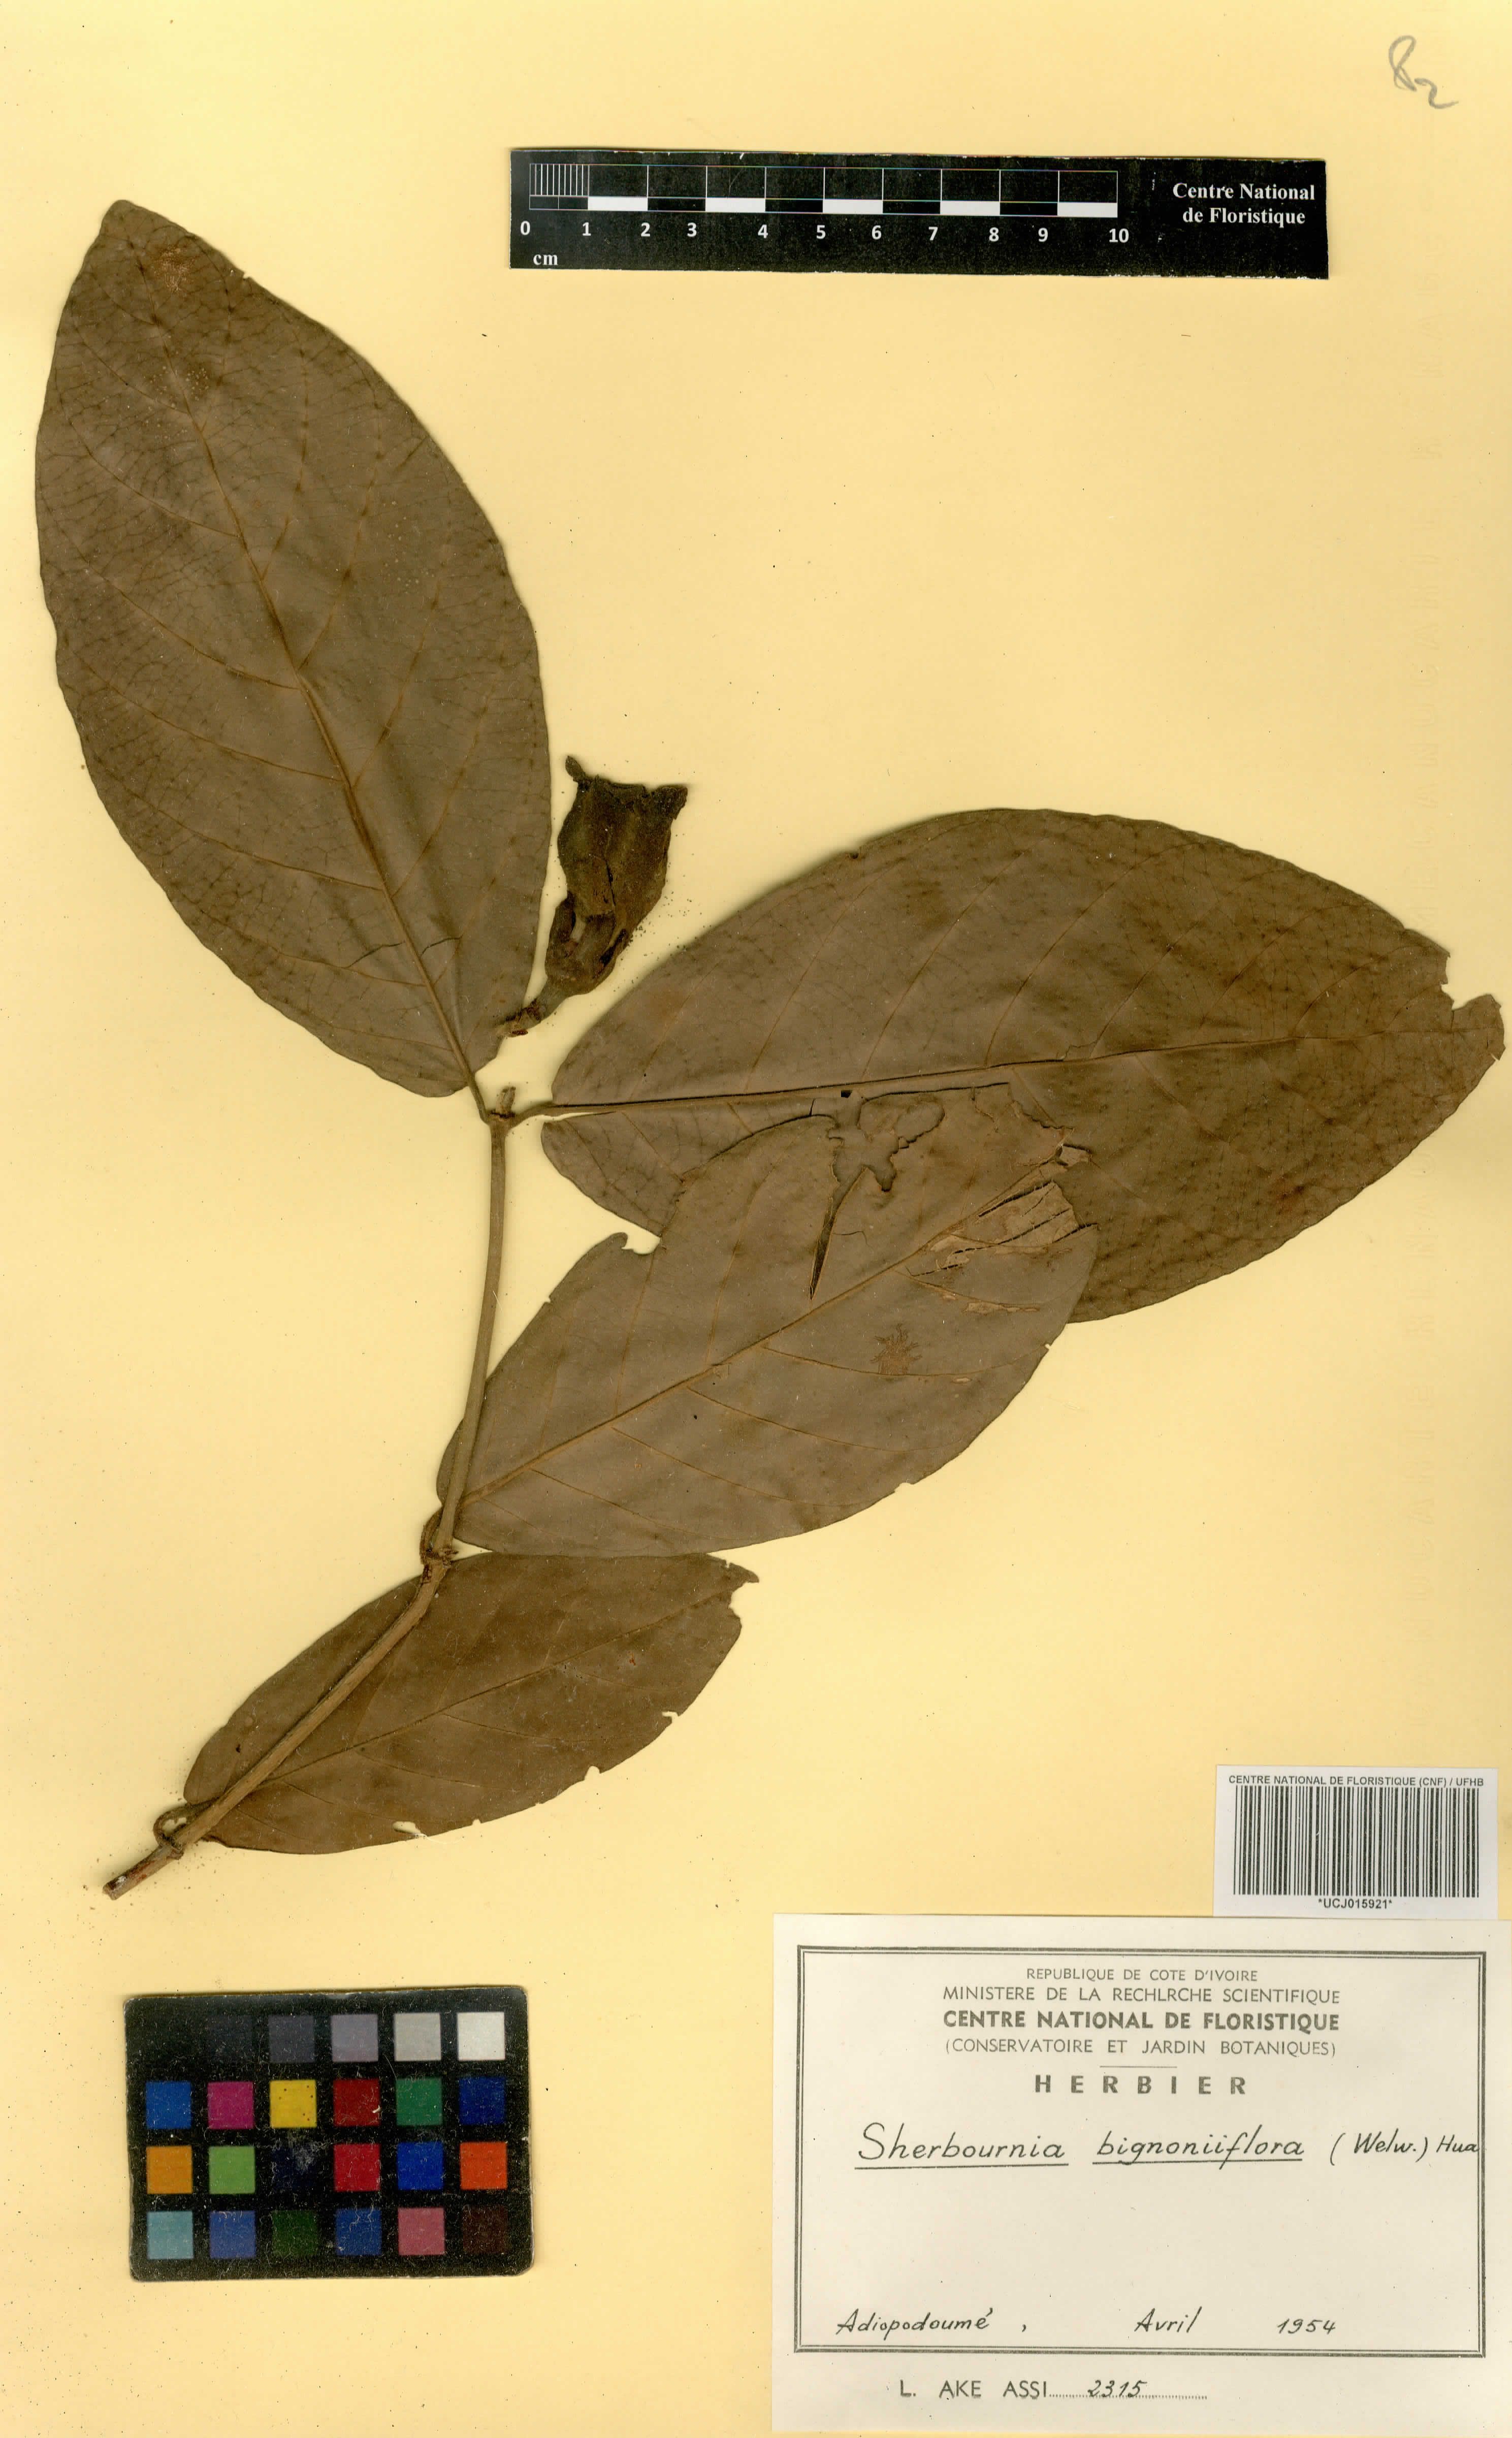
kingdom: Plantae
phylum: Tracheophyta
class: Magnoliopsida
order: Gentianales
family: Rubiaceae
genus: Sherbournia
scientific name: Sherbournia bignoniiflora
